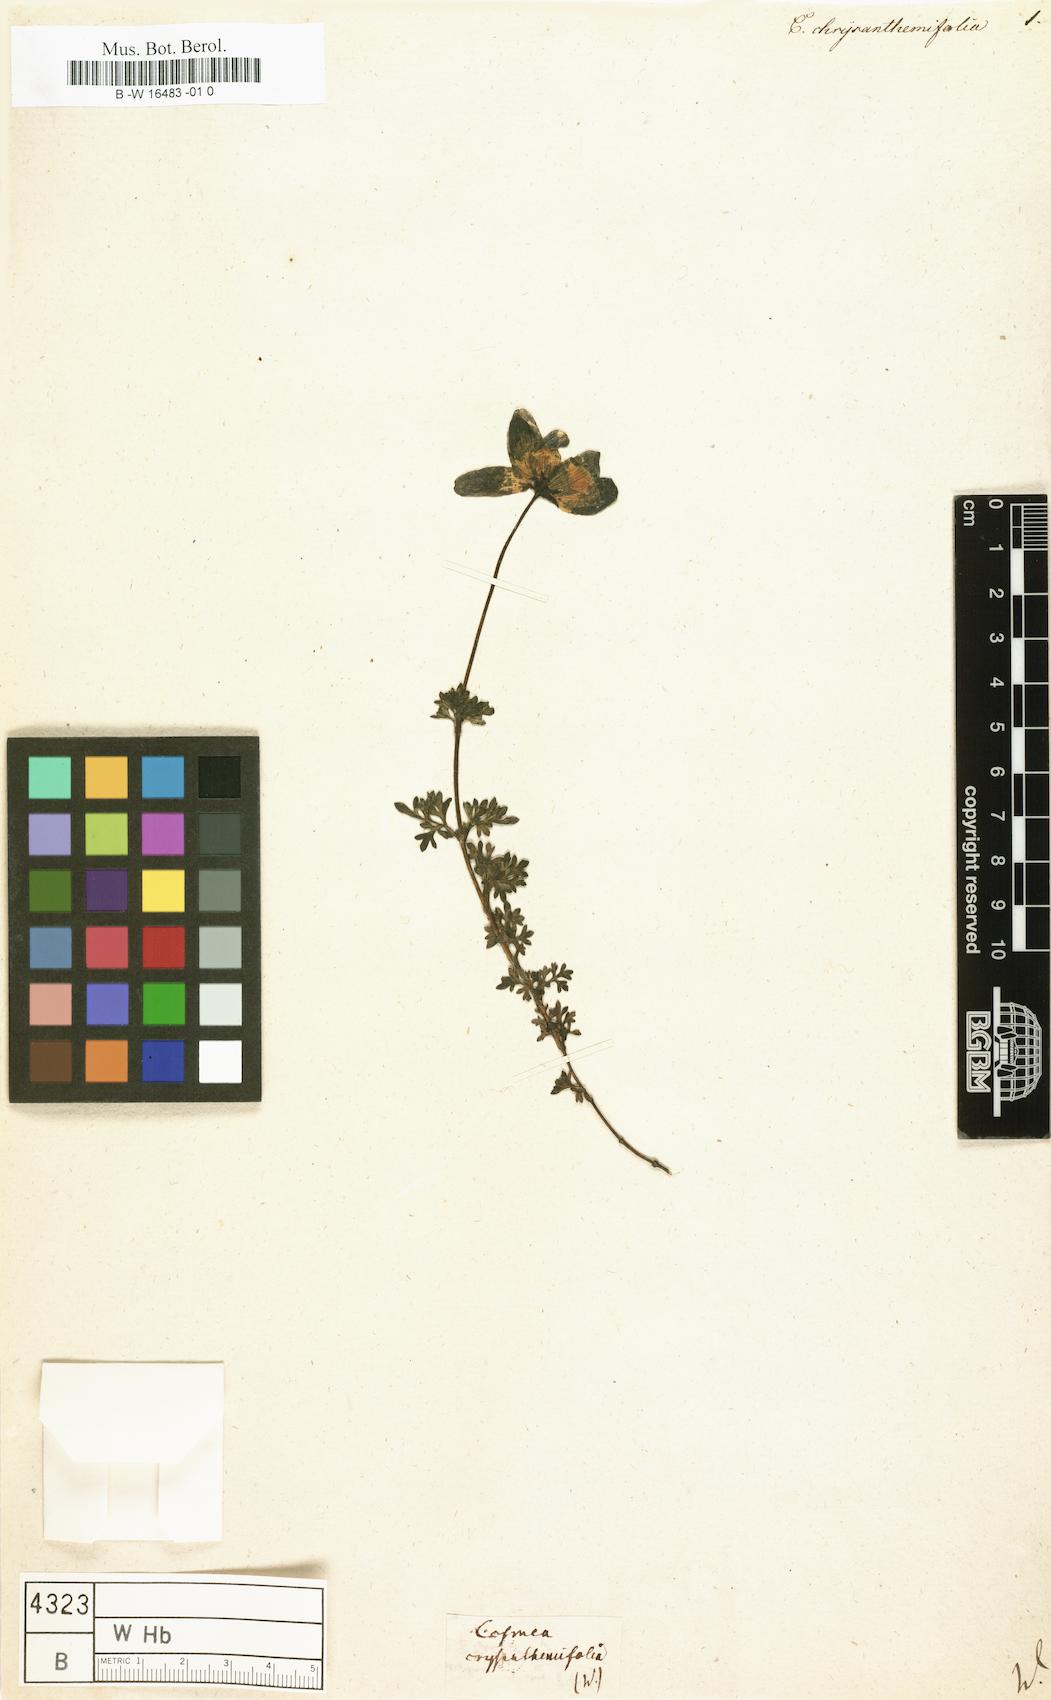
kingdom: Plantae
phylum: Tracheophyta
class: Magnoliopsida
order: Asterales
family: Asteraceae
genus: Bidens
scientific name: Bidens chrysanthemifolia
